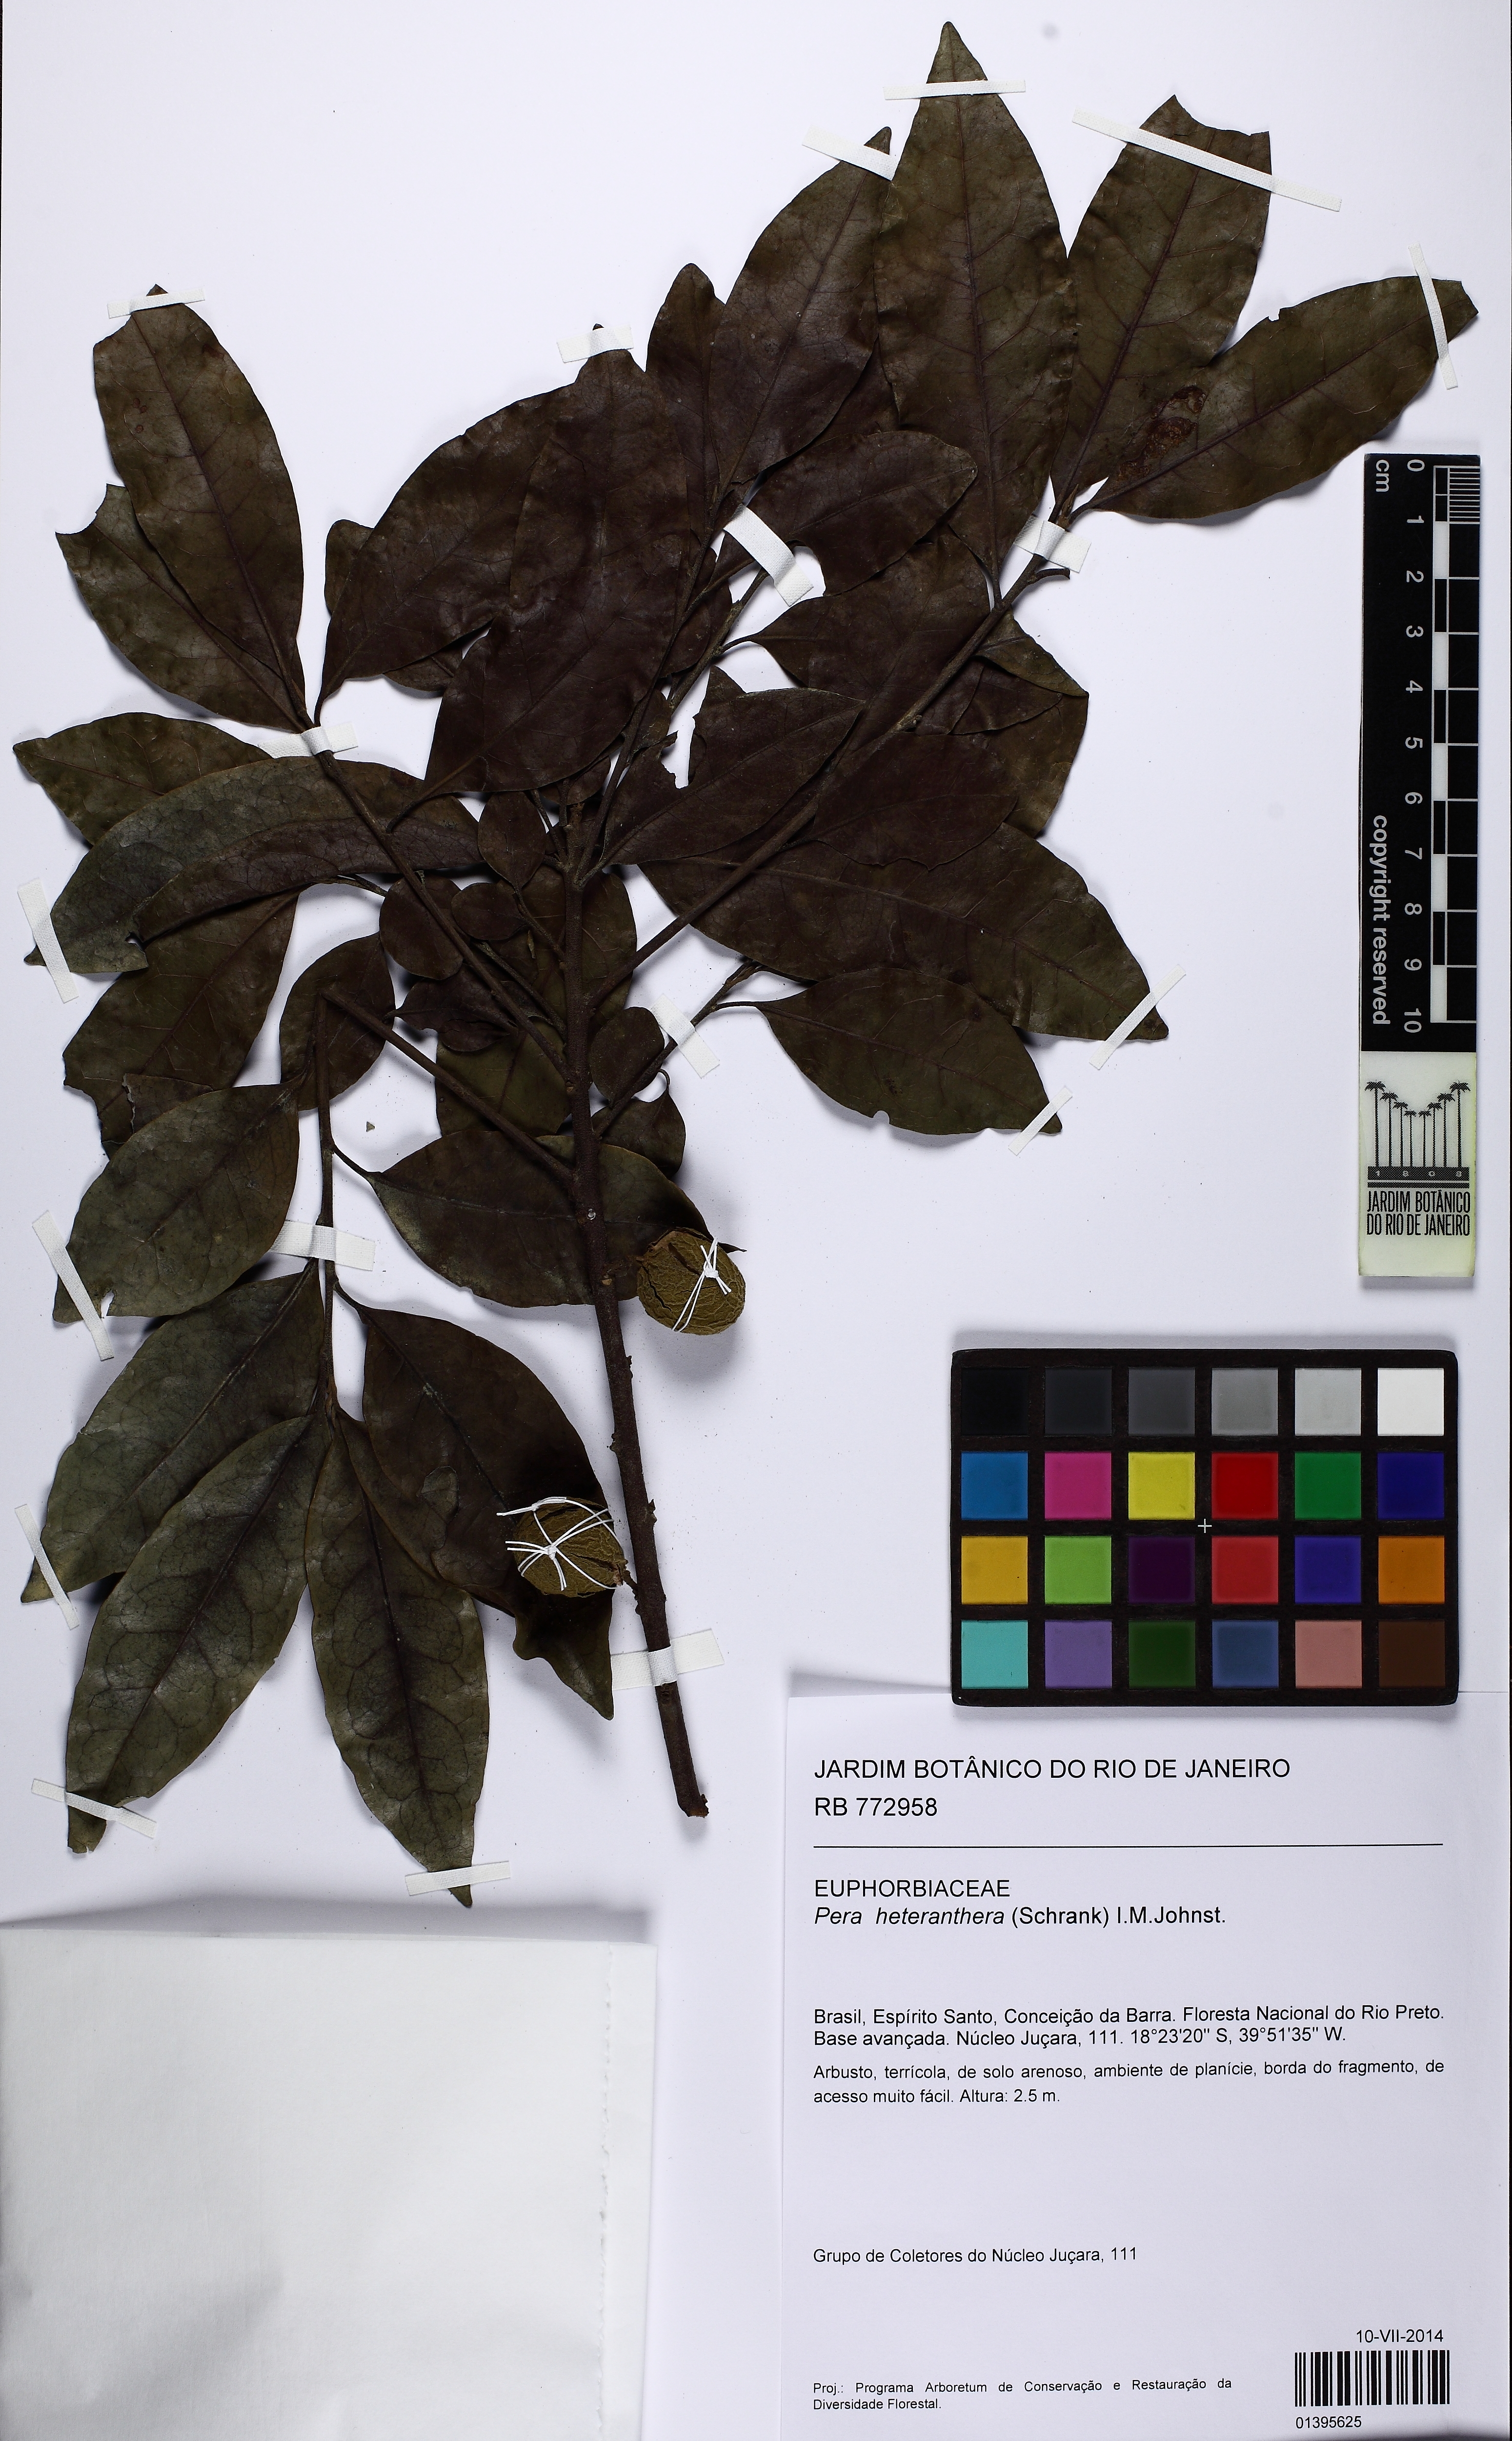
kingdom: Plantae
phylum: Tracheophyta
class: Magnoliopsida
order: Malpighiales
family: Peraceae
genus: Pera
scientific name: Pera furfuracea
